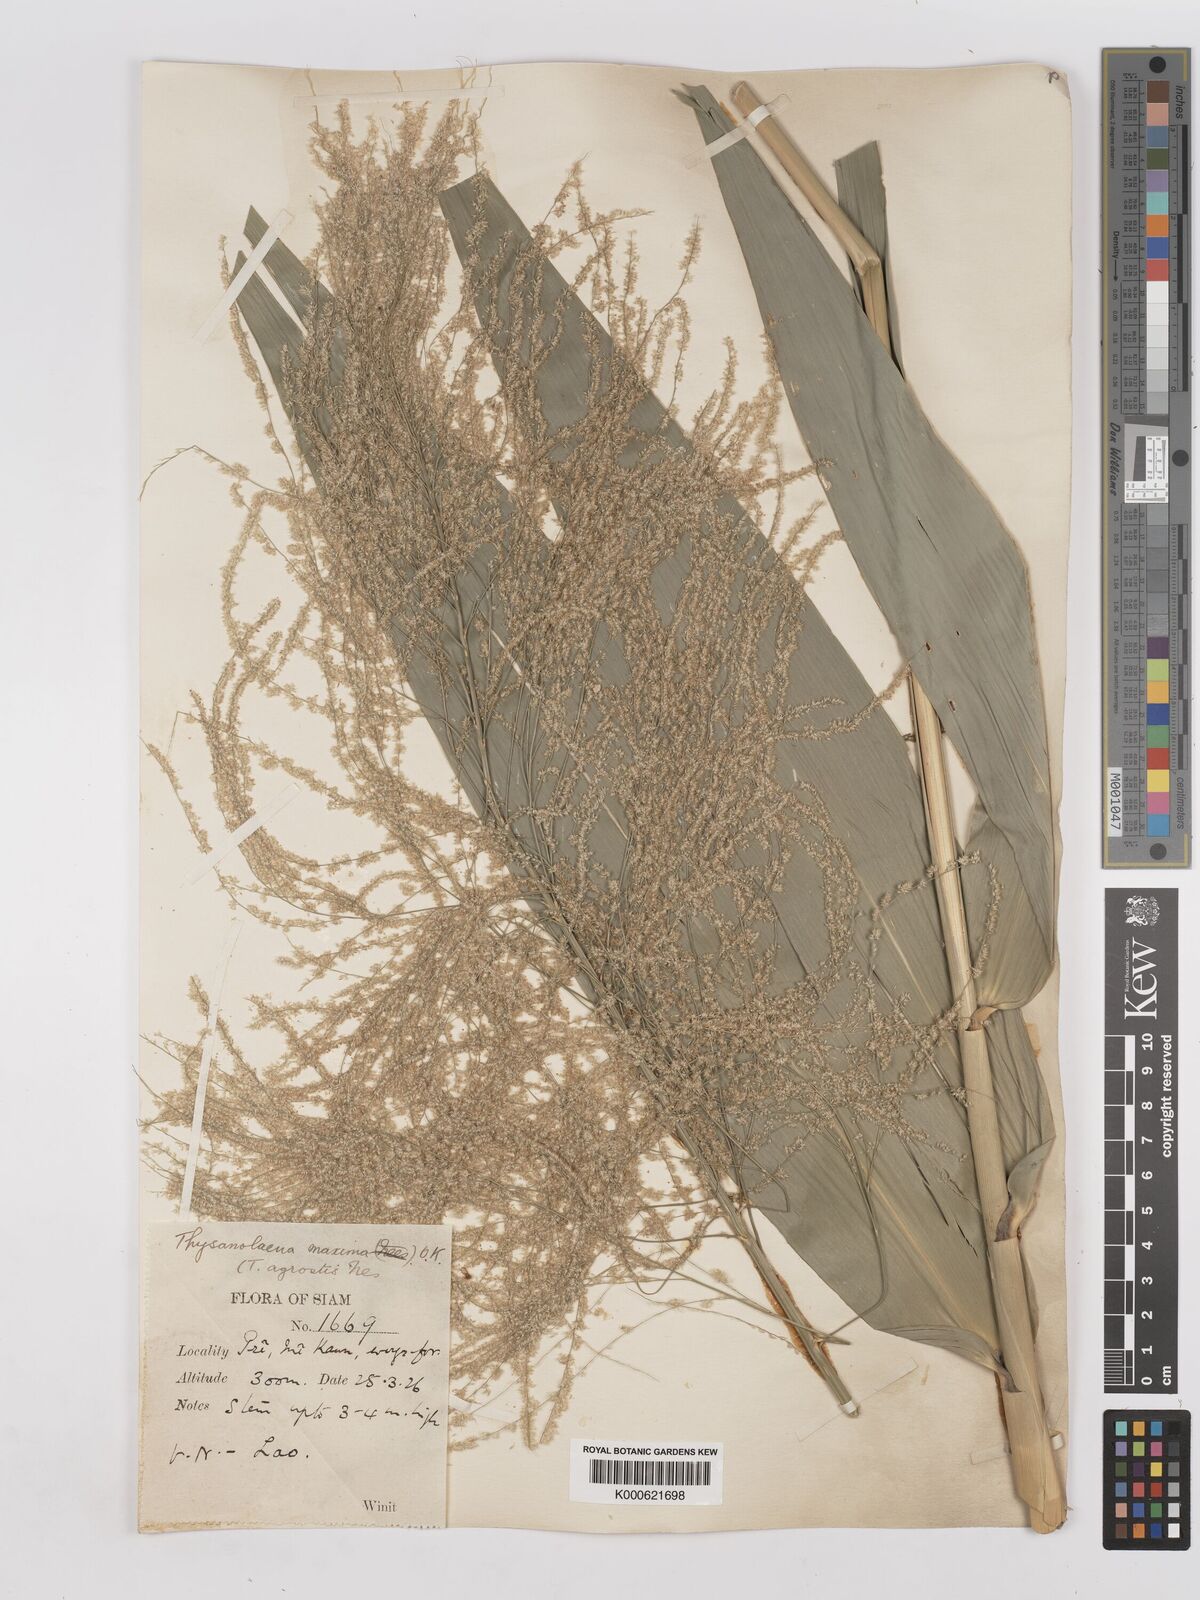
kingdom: Plantae
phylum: Tracheophyta
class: Liliopsida
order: Poales
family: Poaceae
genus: Thysanolaena
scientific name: Thysanolaena latifolia
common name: Tiger grass
